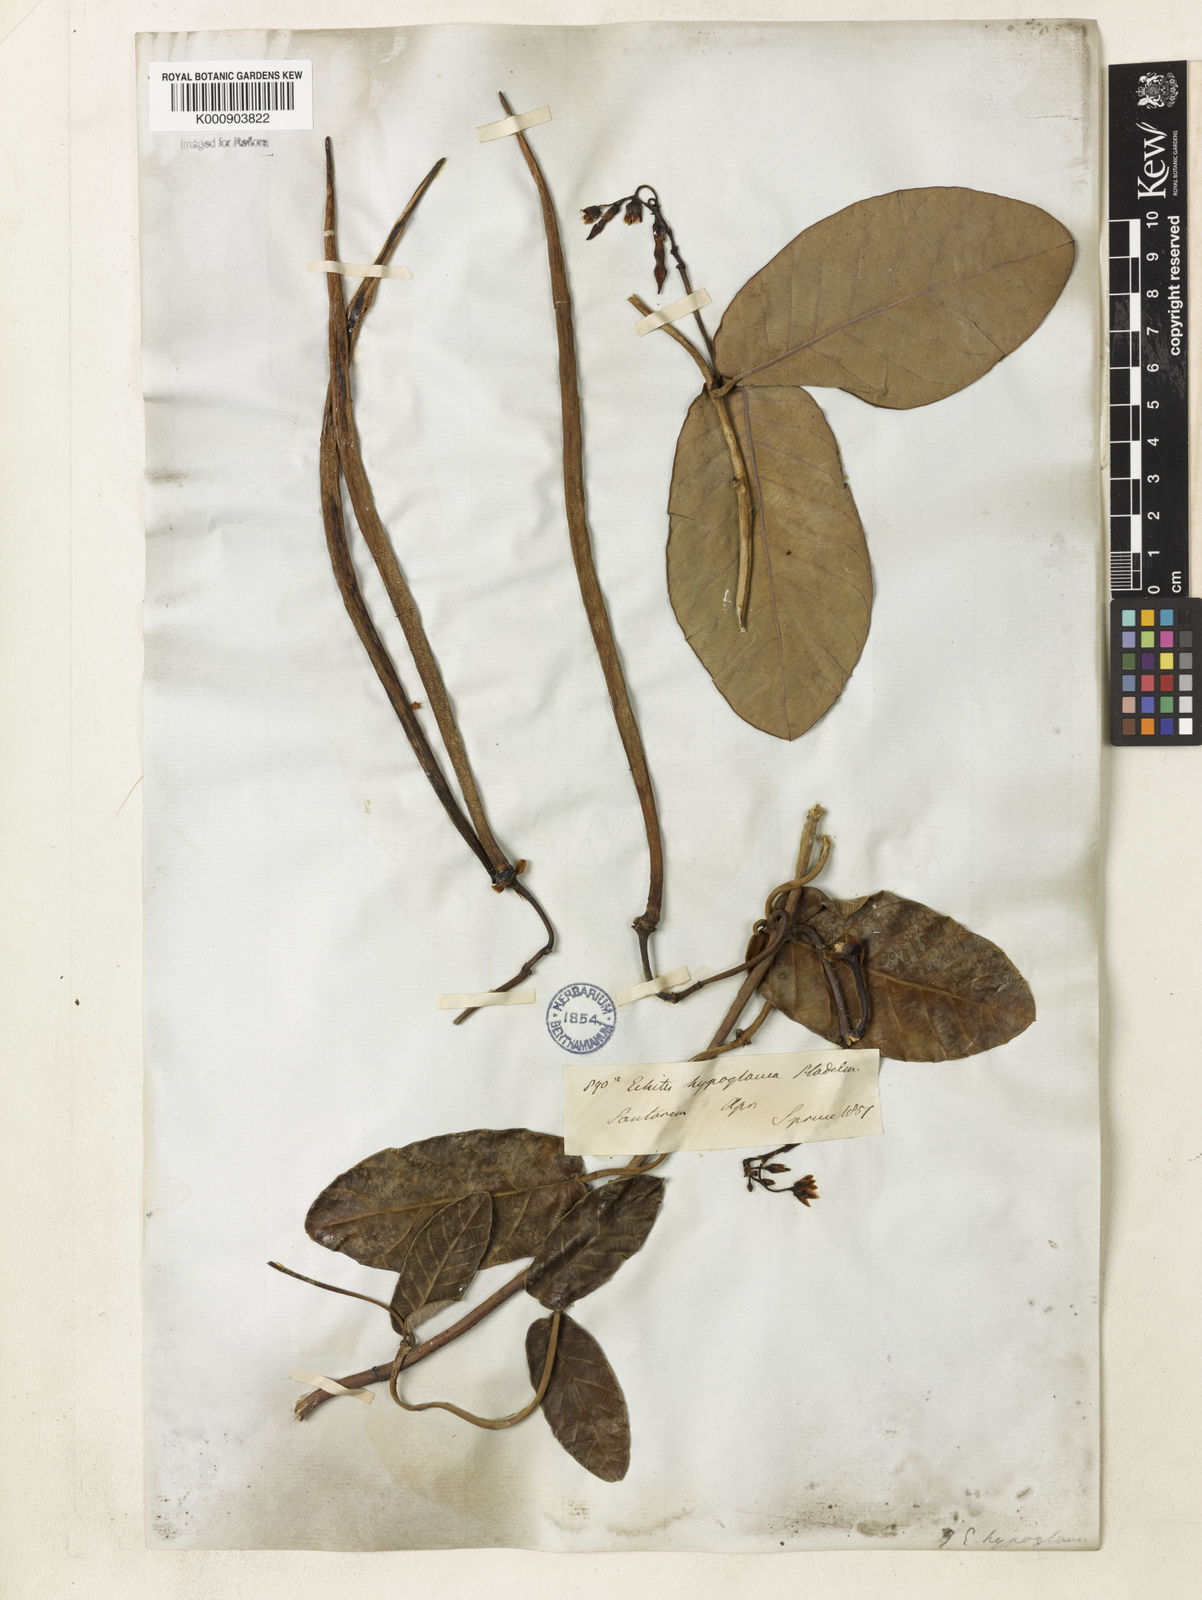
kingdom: Plantae
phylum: Tracheophyta
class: Magnoliopsida
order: Gentianales
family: Apocynaceae
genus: Odontadenia
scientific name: Odontadenia
